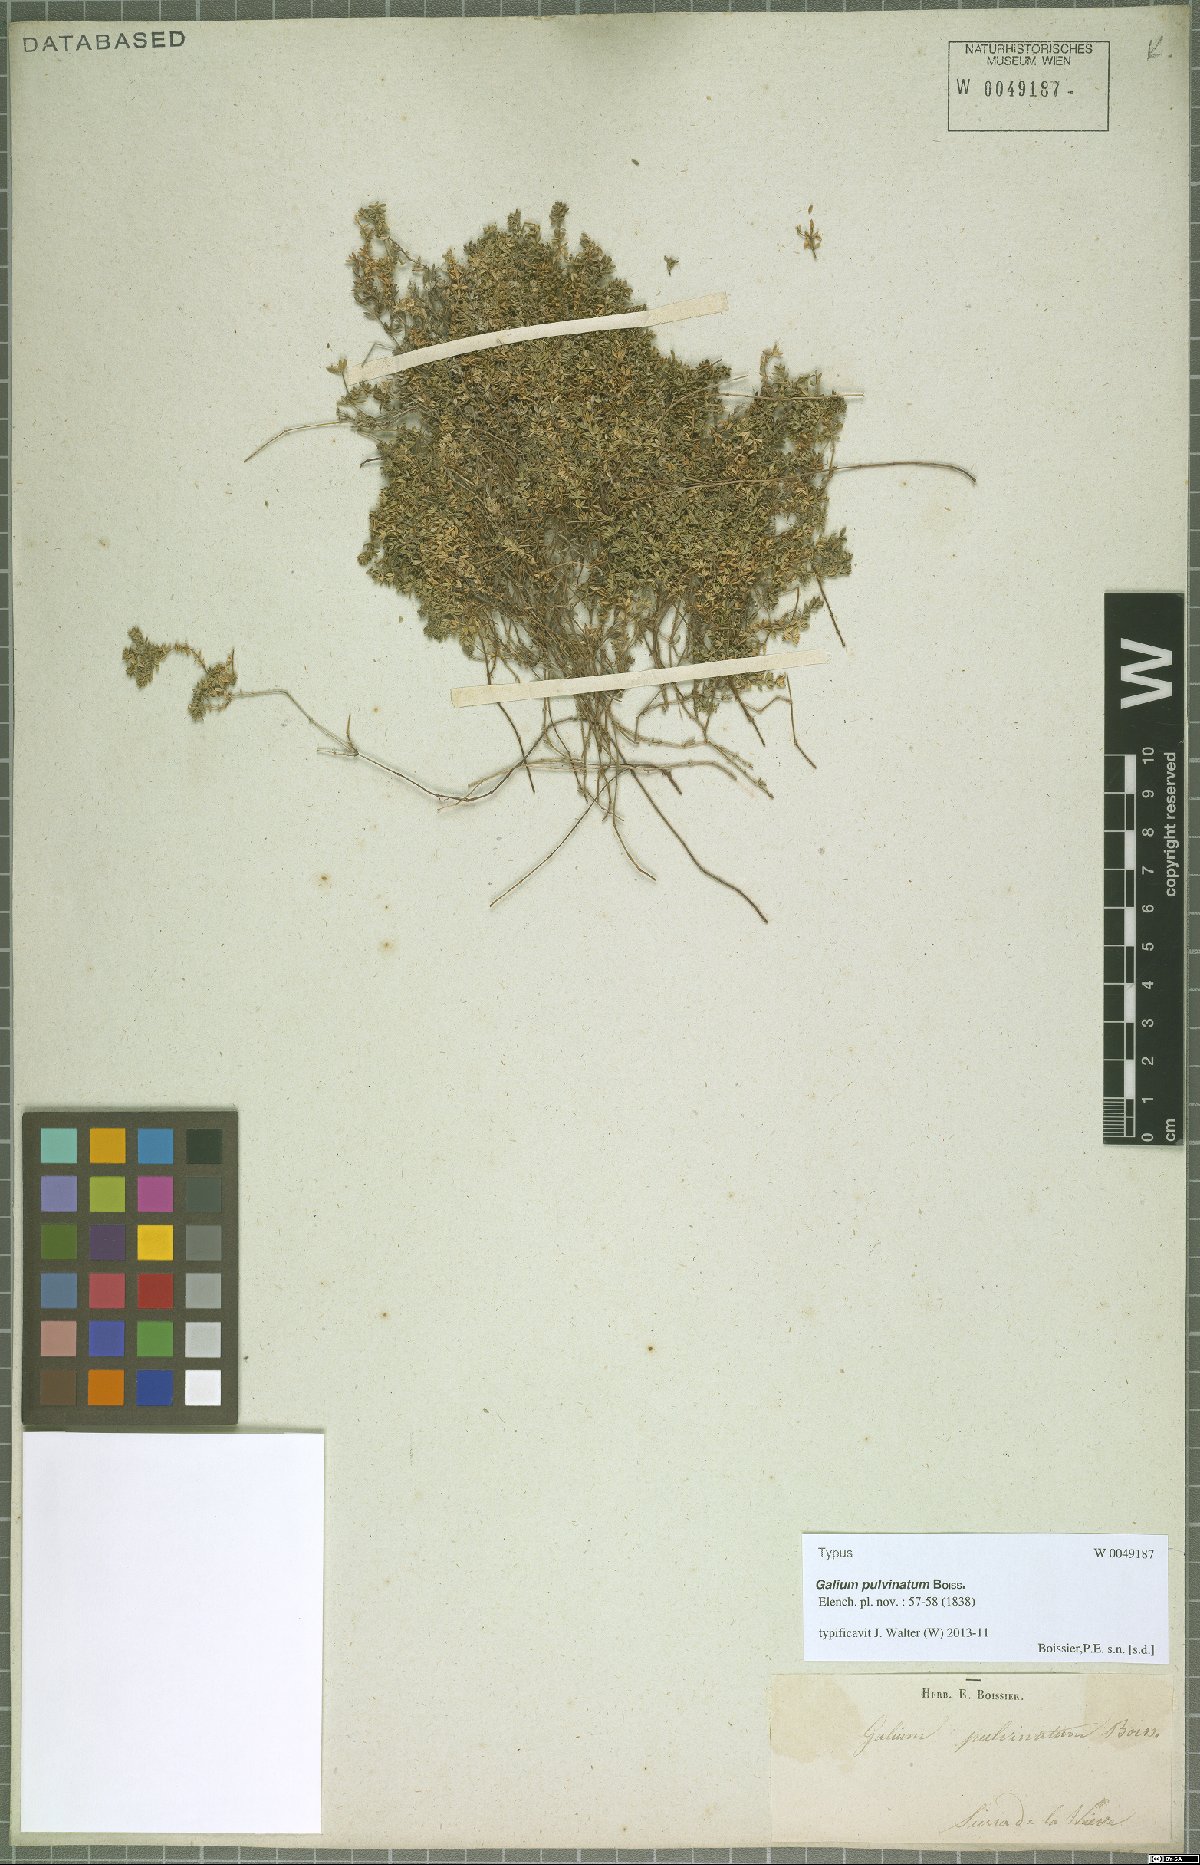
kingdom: Plantae
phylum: Tracheophyta
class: Magnoliopsida
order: Gentianales
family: Rubiaceae
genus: Galium
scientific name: Galium pulvinatum
